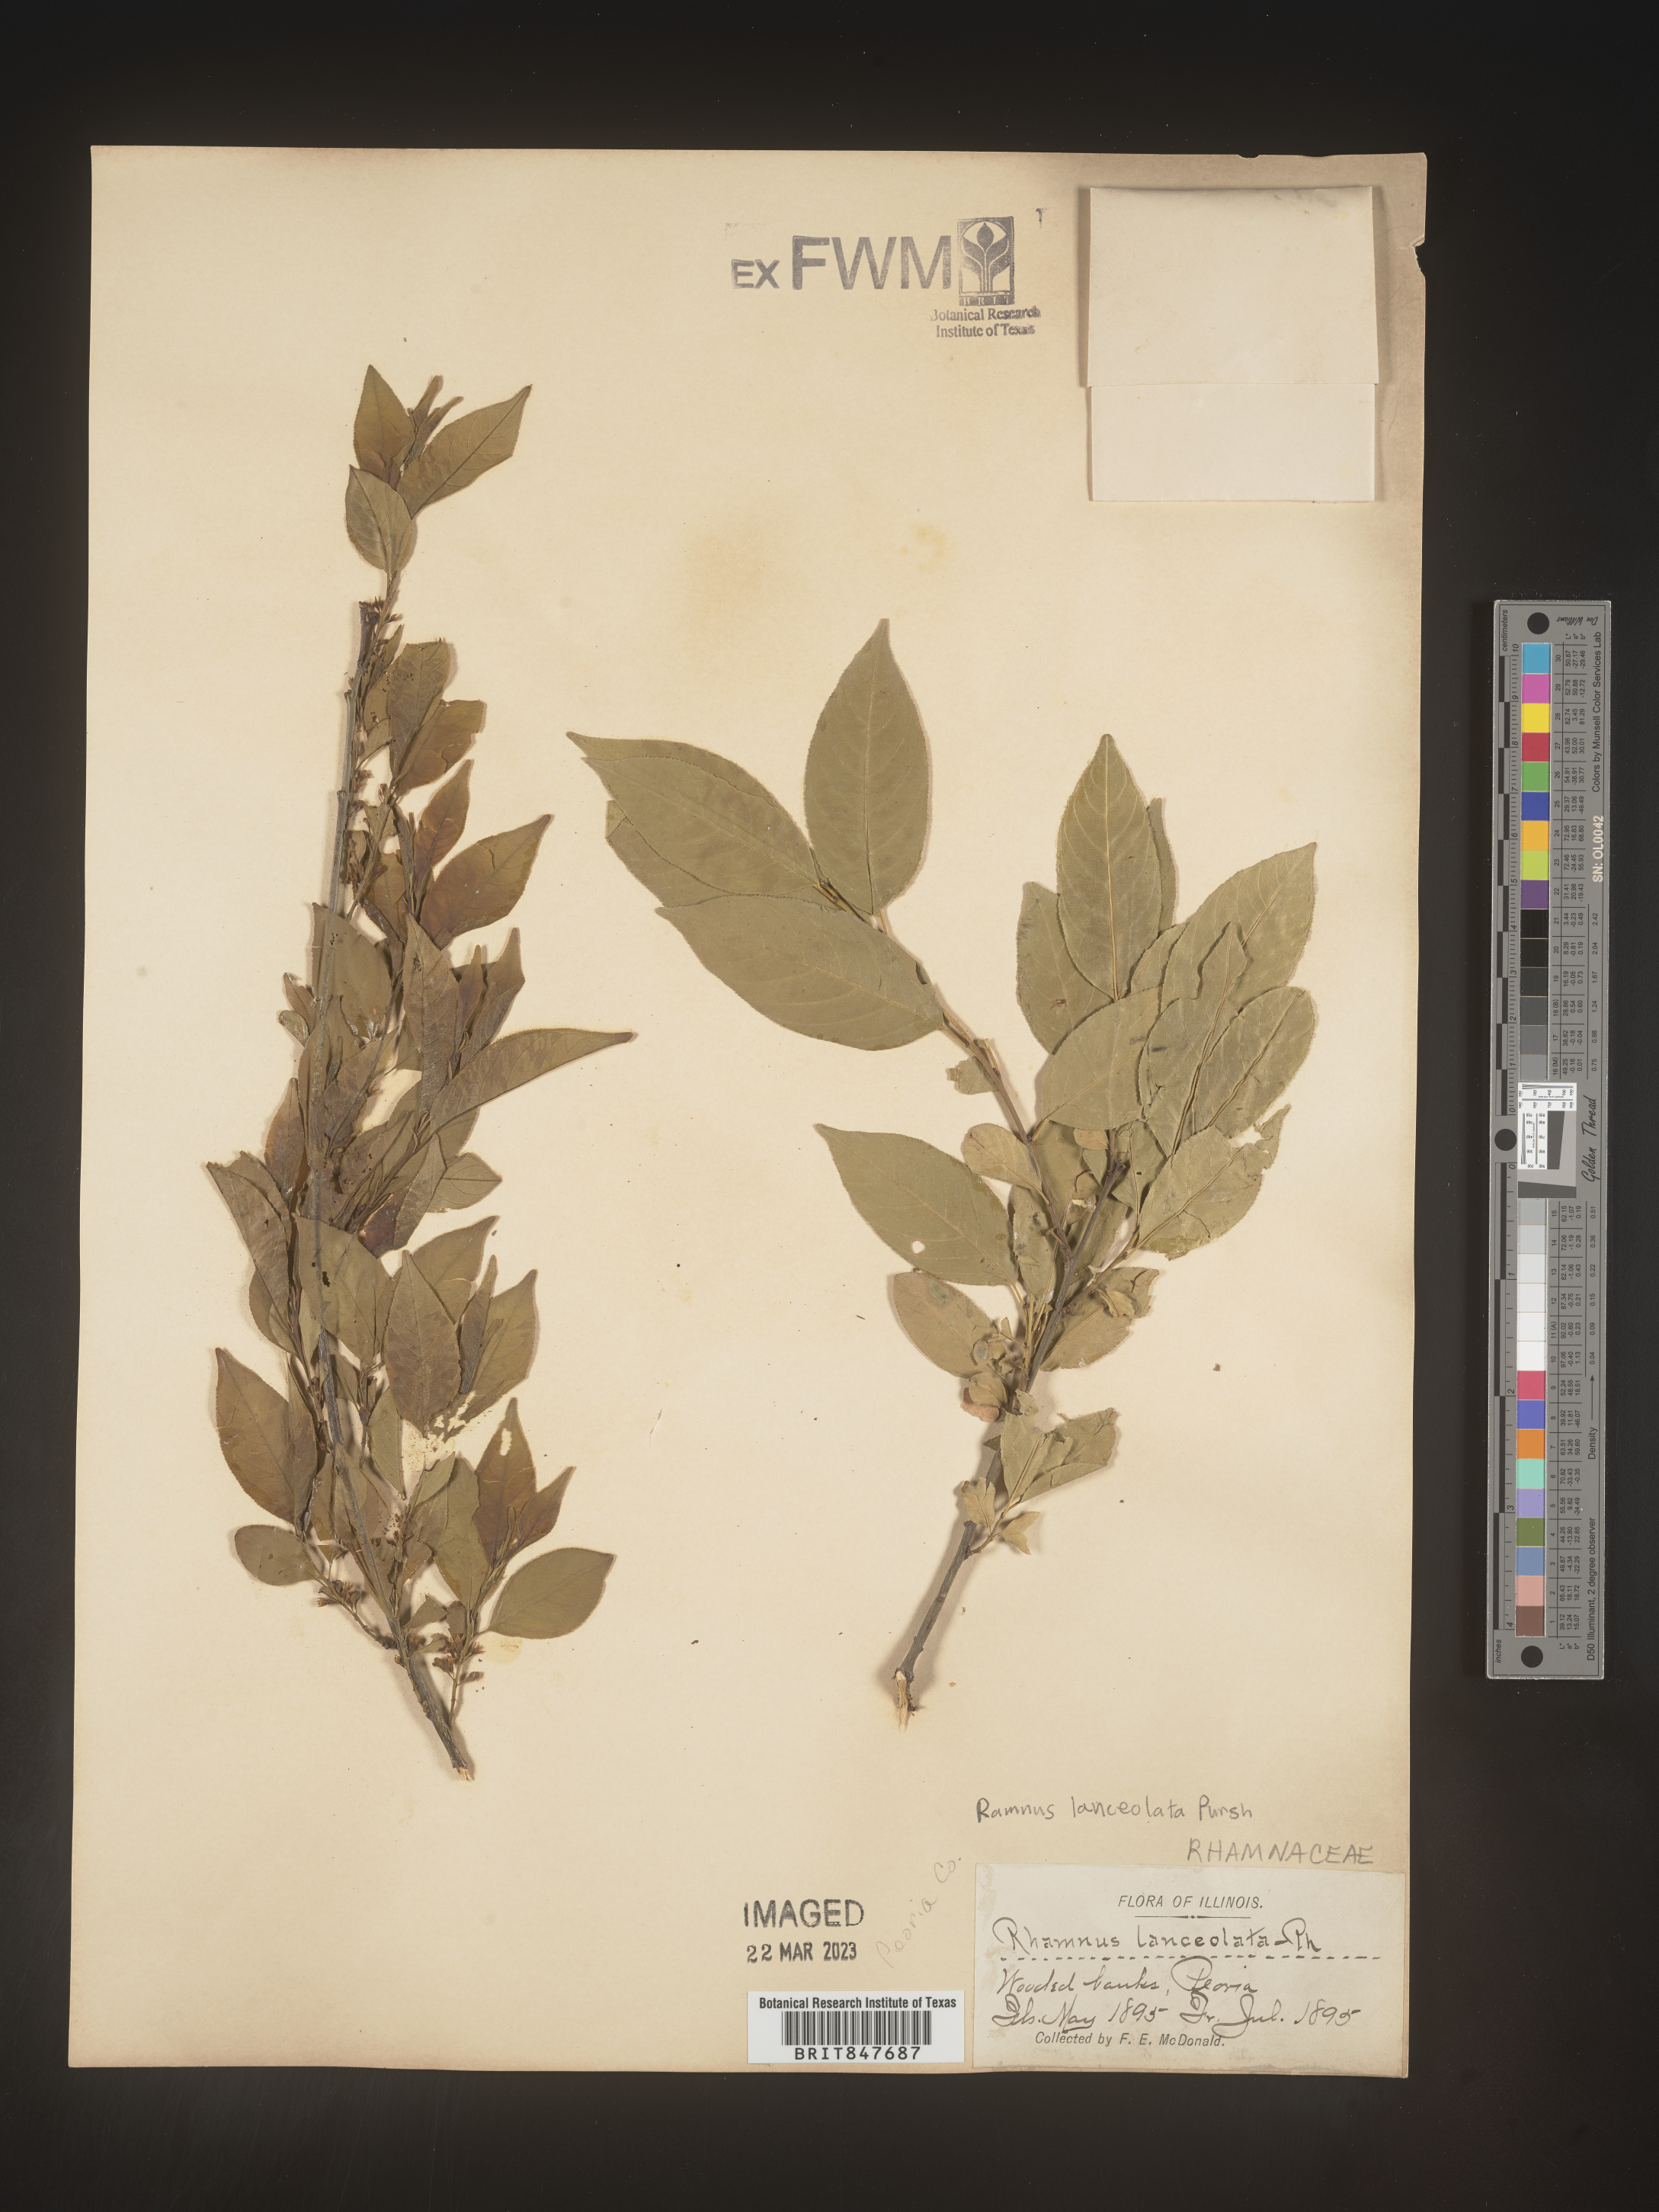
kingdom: Plantae
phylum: Tracheophyta
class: Magnoliopsida
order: Rosales
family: Rhamnaceae
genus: Endotropis
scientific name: Endotropis lanceolata
